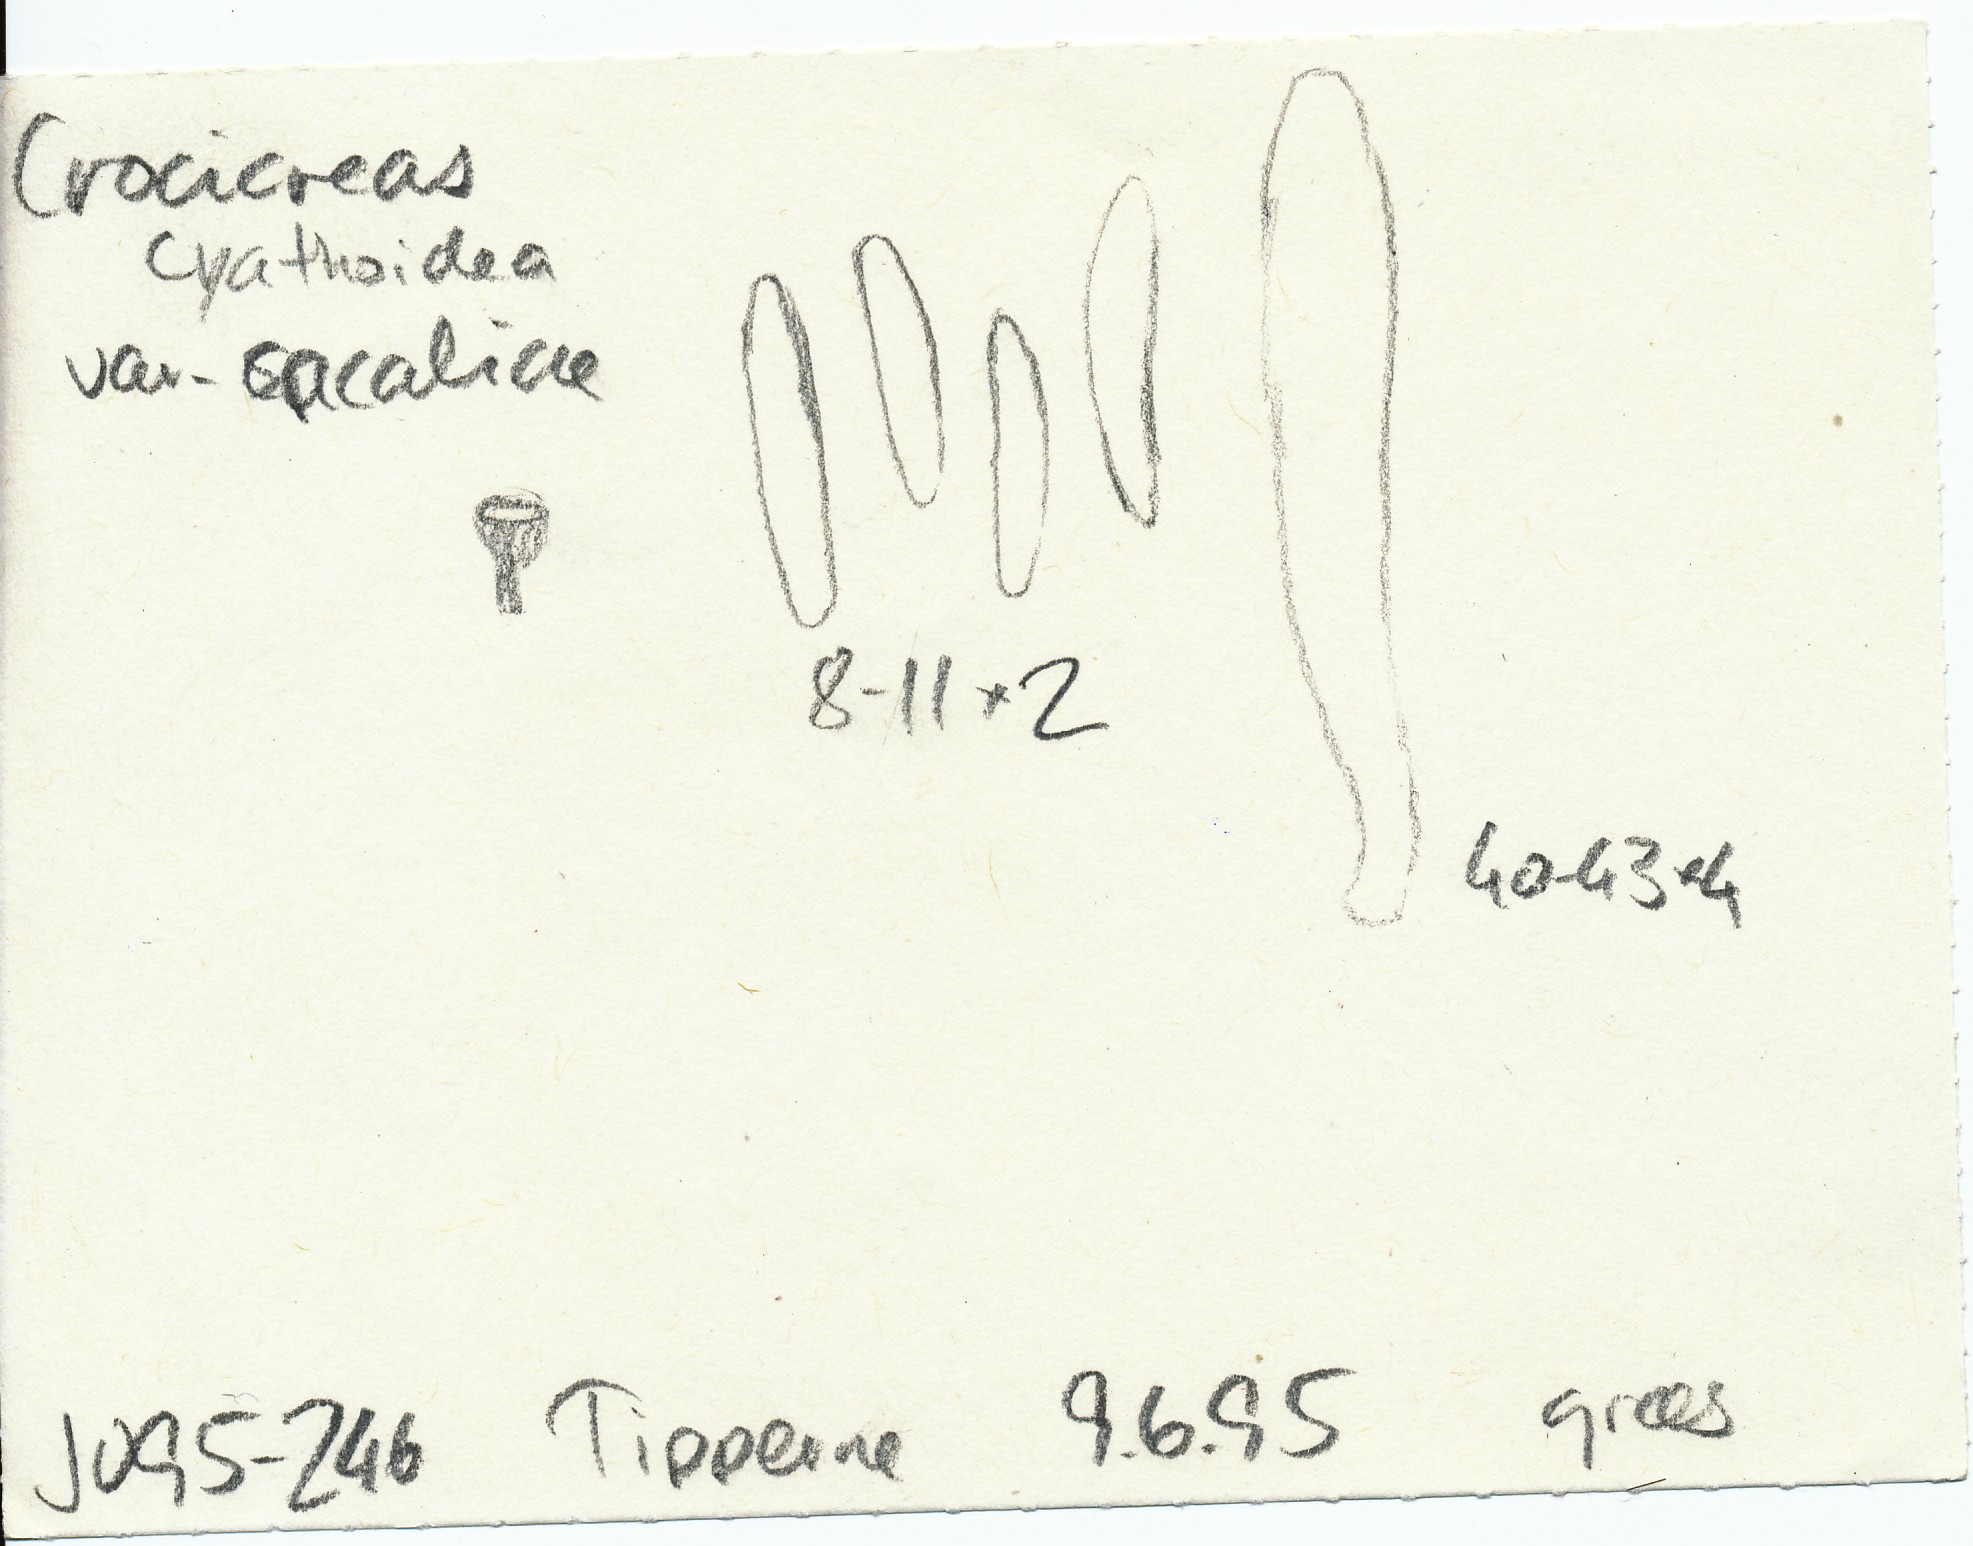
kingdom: Fungi
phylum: Ascomycota
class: Leotiomycetes
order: Helotiales
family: Helotiaceae
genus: Cyathicula
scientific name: Cyathicula cyathoidea
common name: pokal-stilkskive
